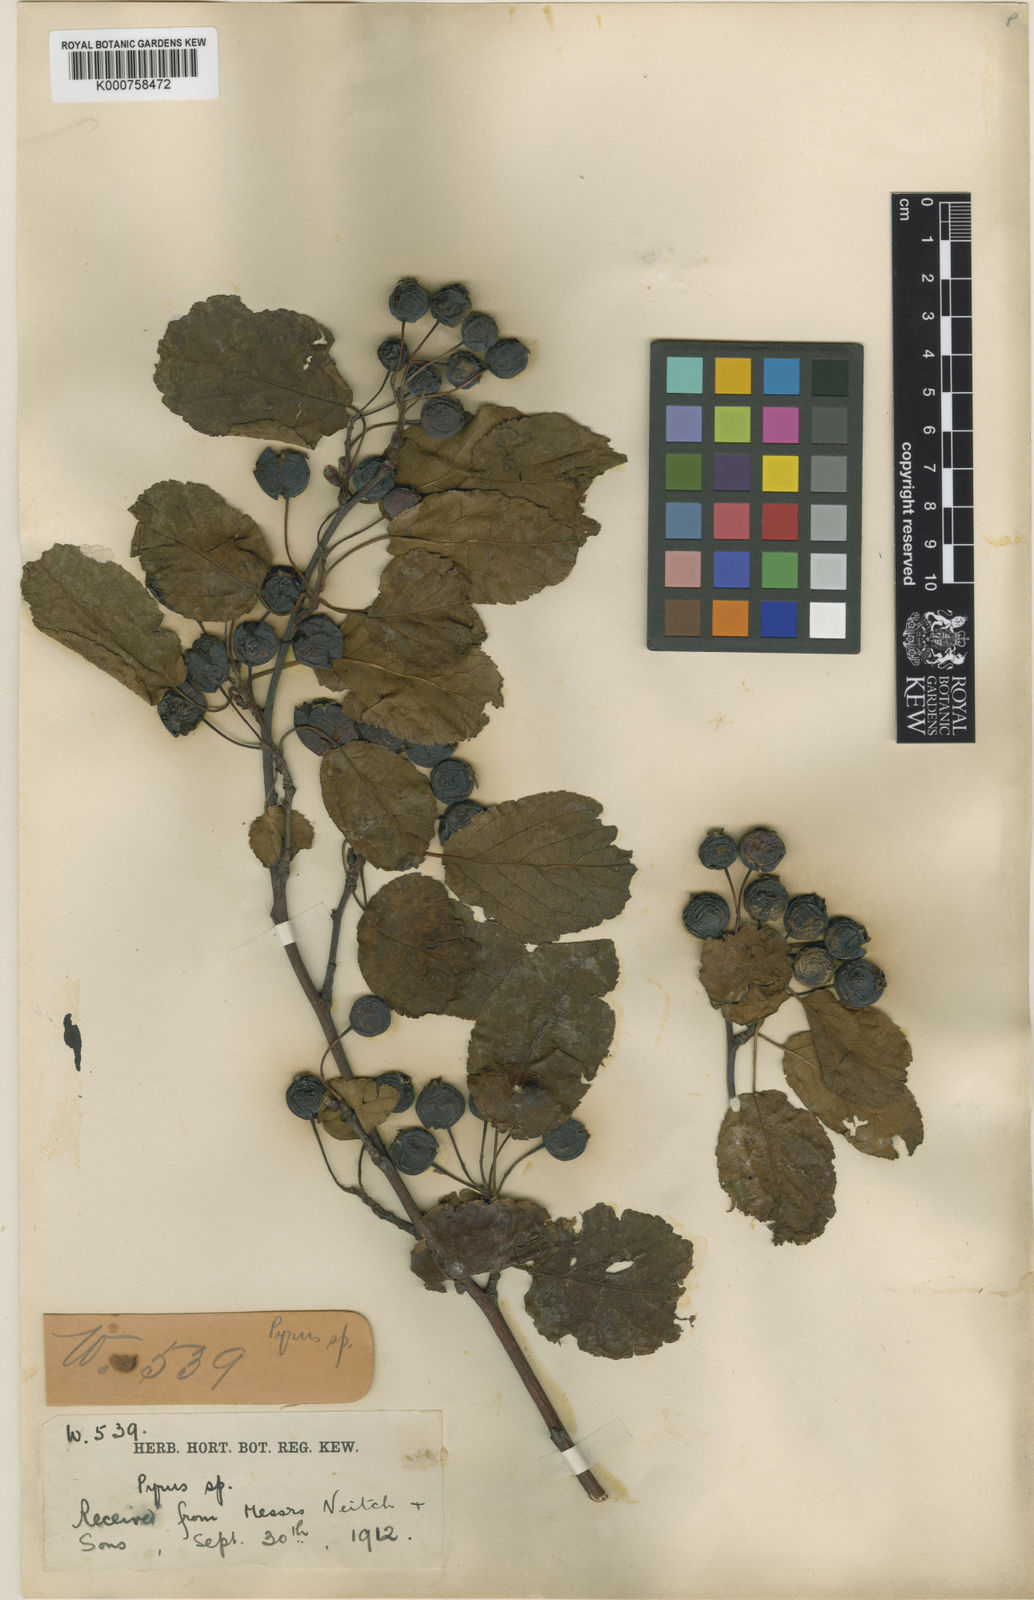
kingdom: Plantae
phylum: Tracheophyta
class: Magnoliopsida
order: Rosales
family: Rosaceae
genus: Malus
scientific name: Malus yunnanensis
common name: Yunnan crabapple
